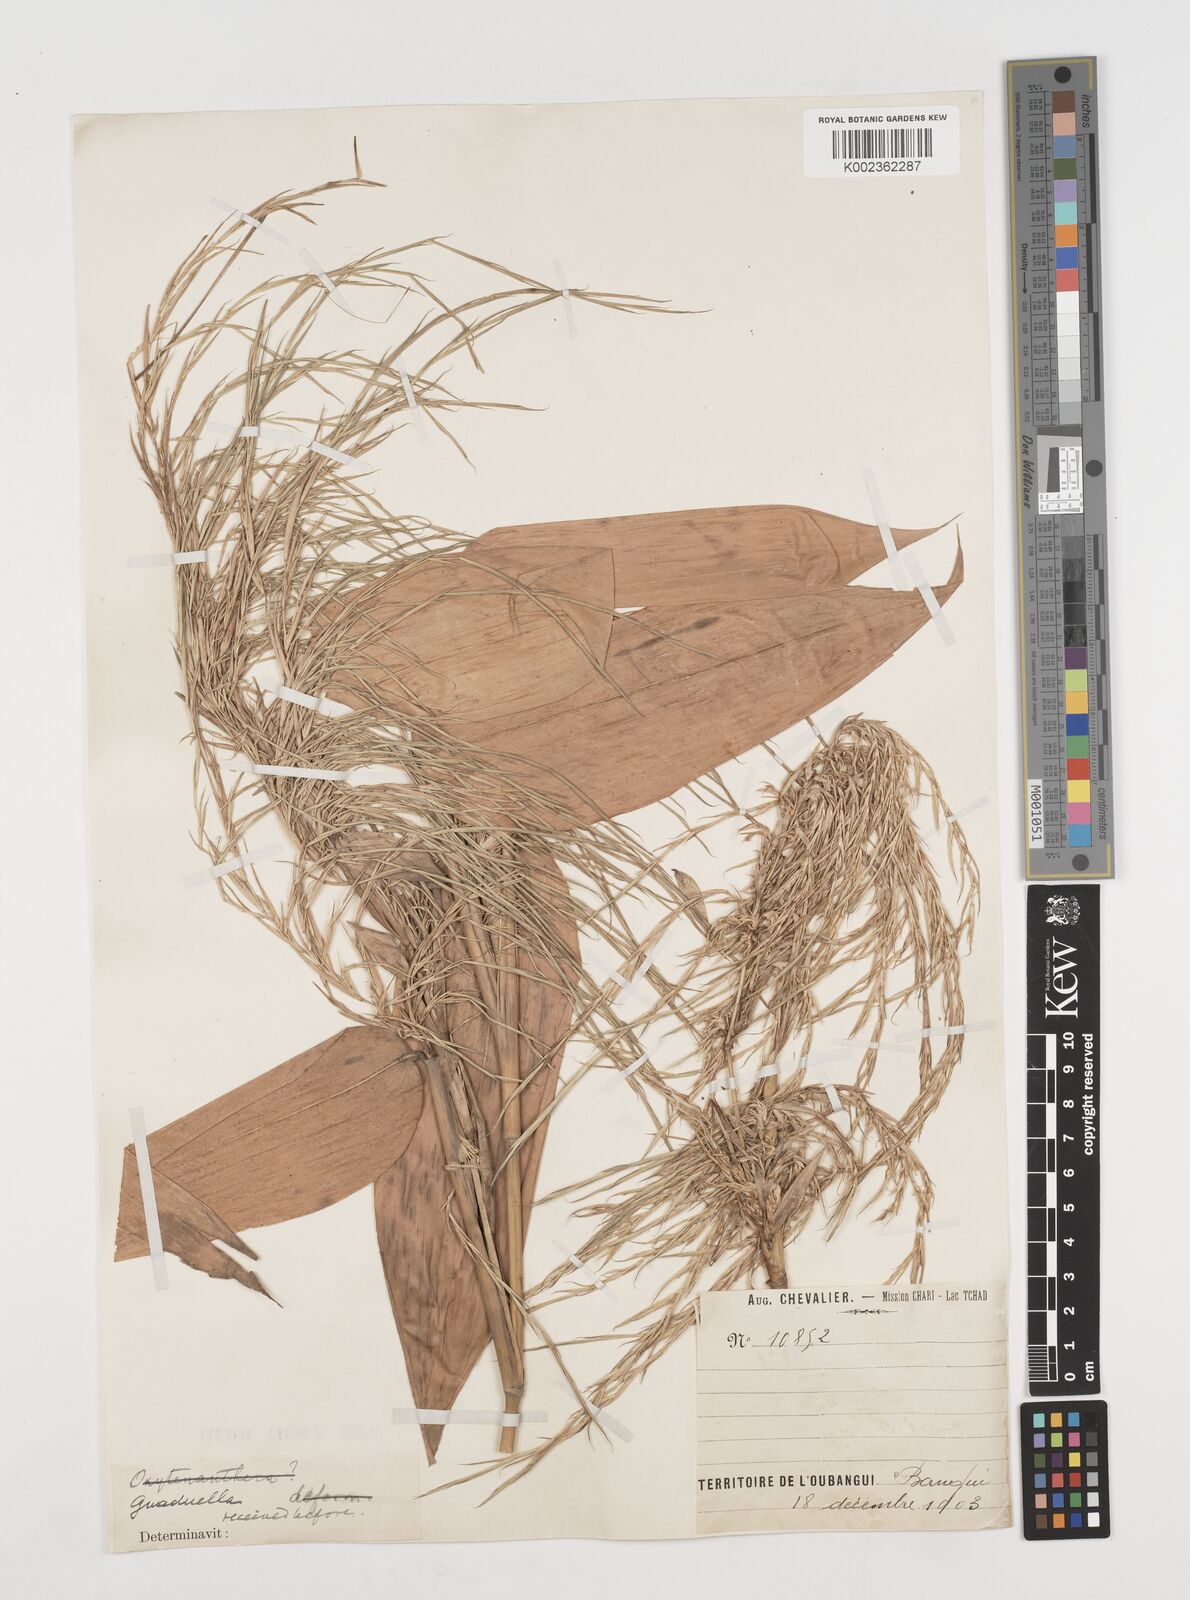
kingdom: Plantae
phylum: Tracheophyta
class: Liliopsida
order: Poales
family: Poaceae
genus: Guaduella
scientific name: Guaduella
